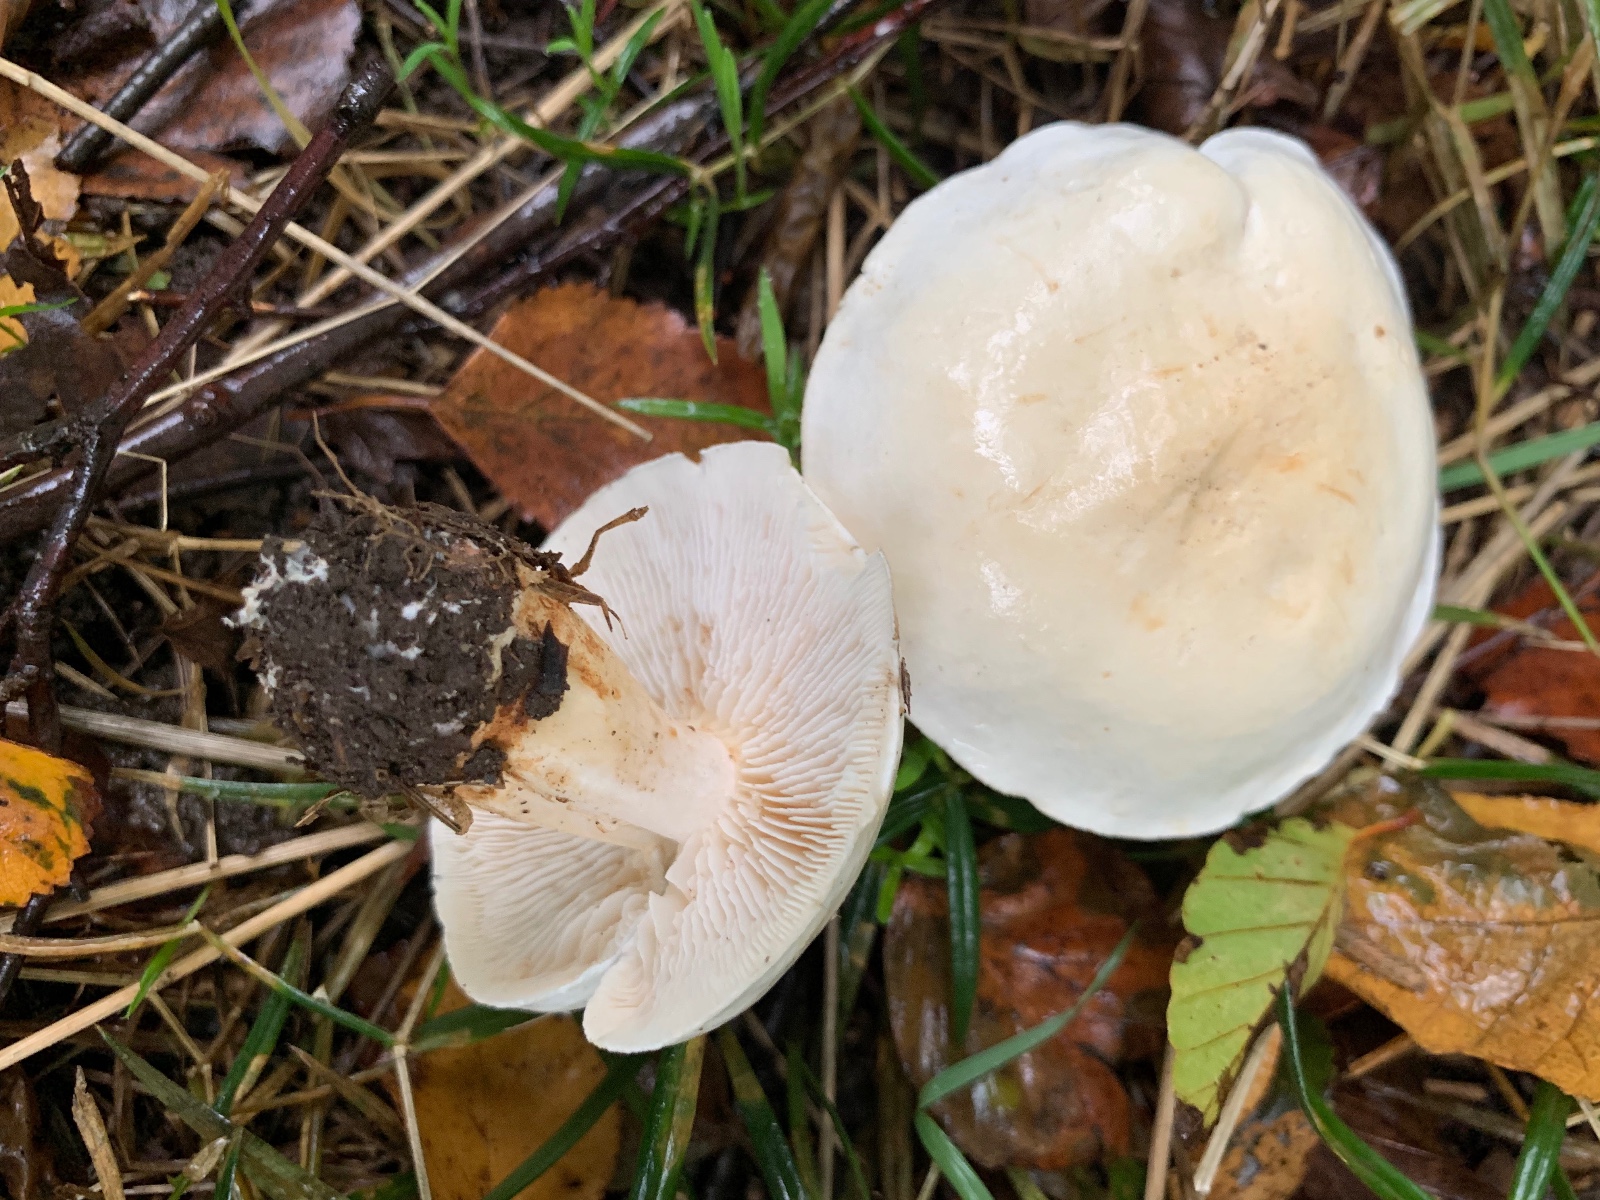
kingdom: Fungi
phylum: Basidiomycota
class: Agaricomycetes
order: Agaricales
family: Tricholomataceae
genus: Tricholoma
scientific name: Tricholoma stiparophyllum
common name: hvid ridderhat
